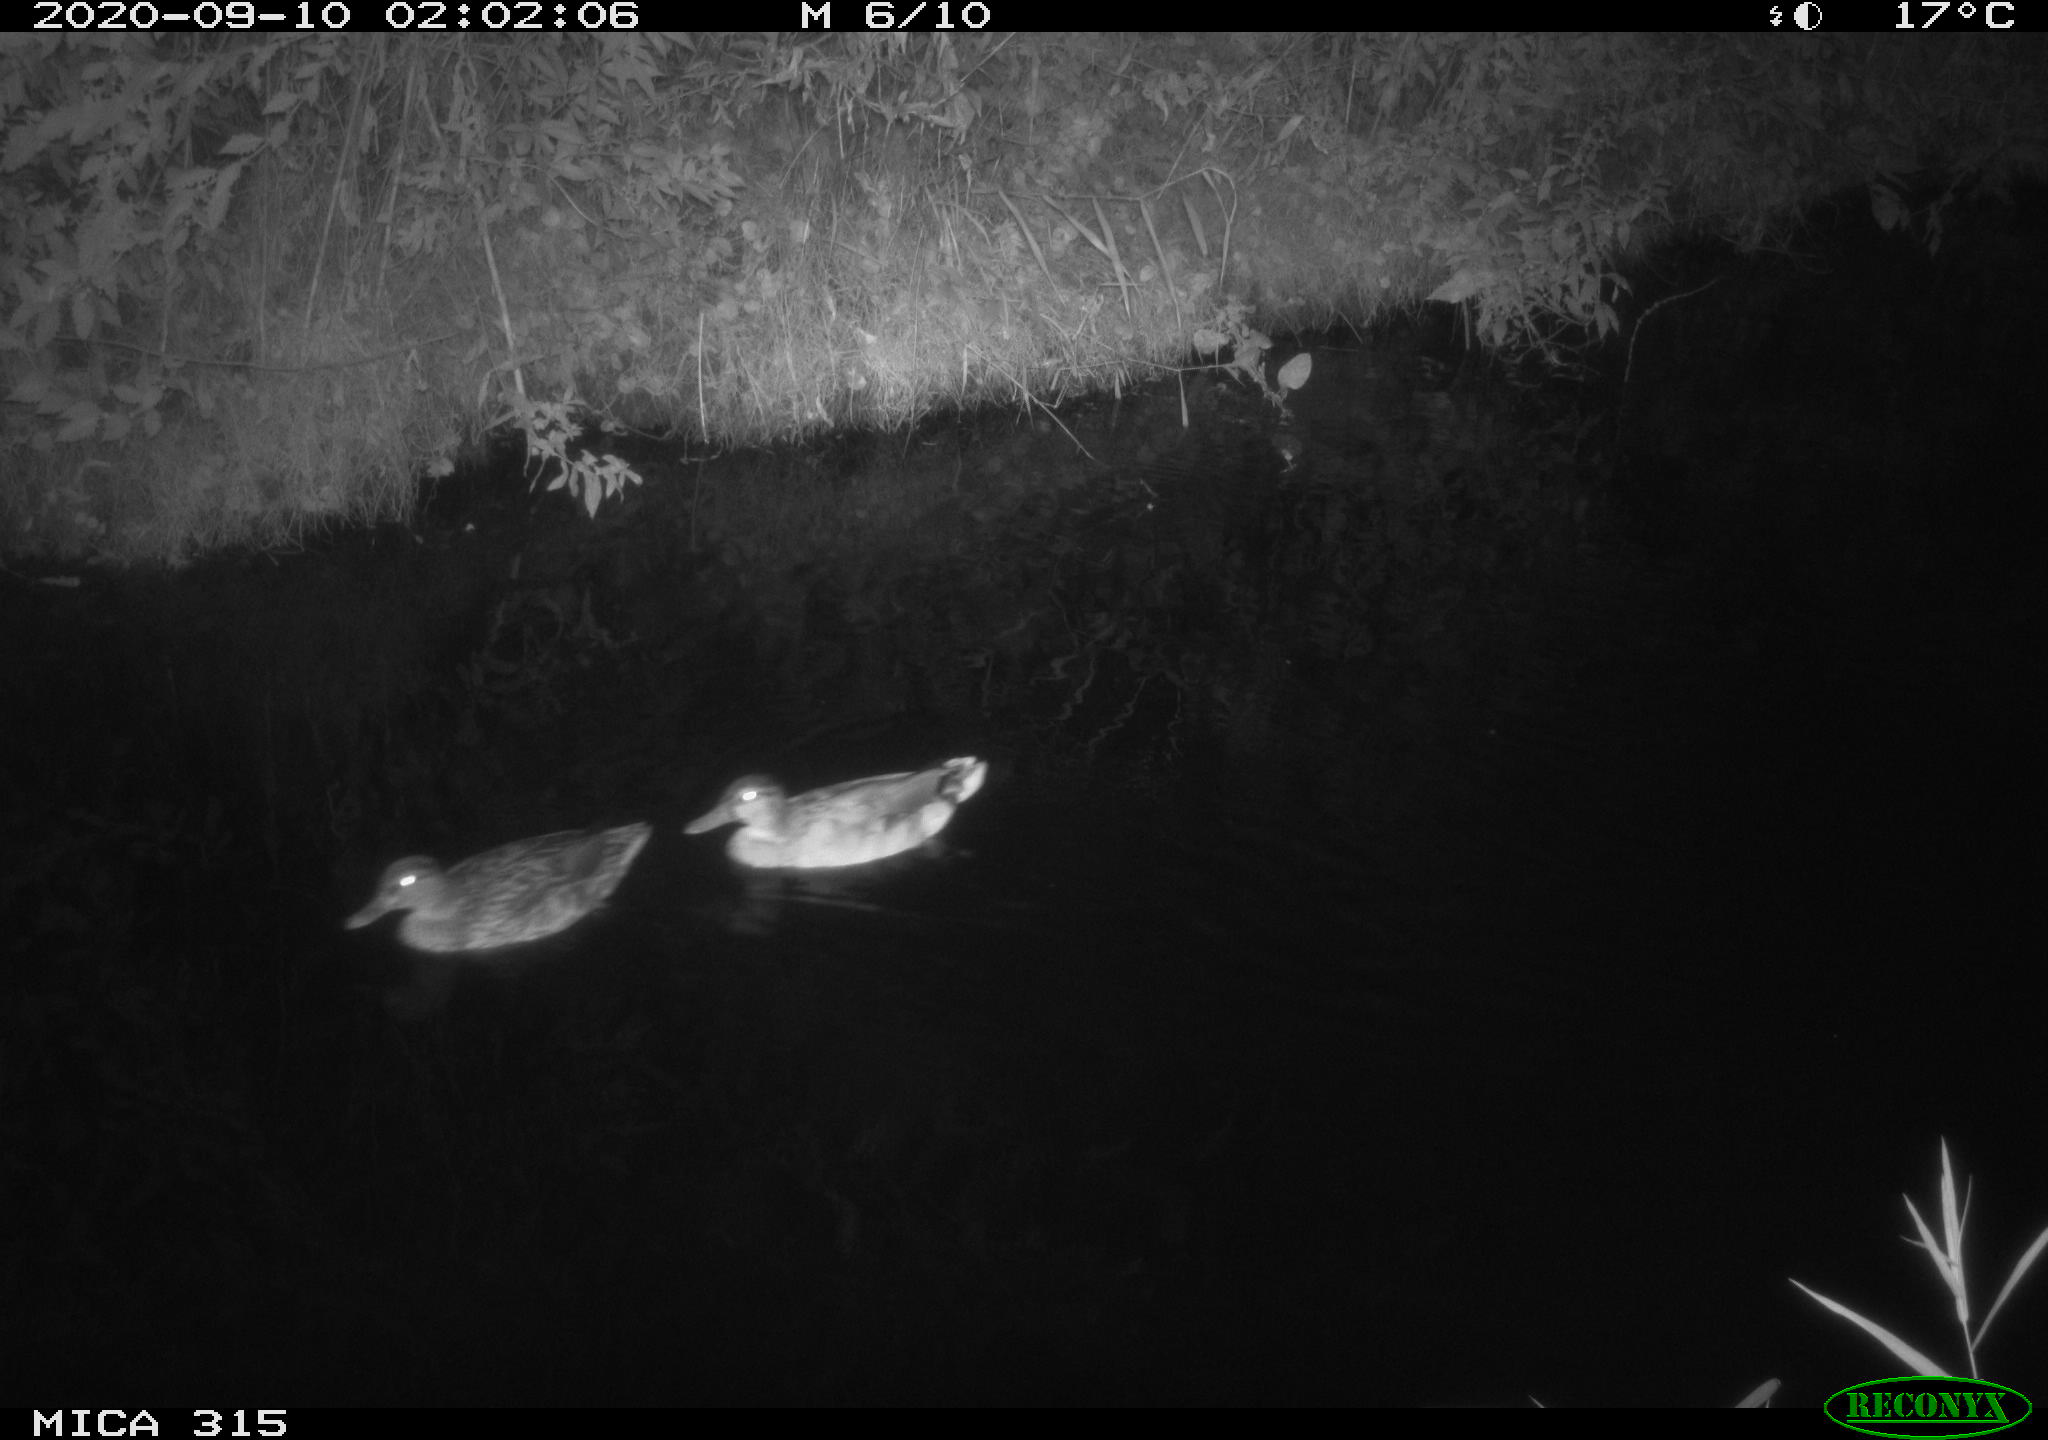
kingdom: Animalia
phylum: Chordata
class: Aves
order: Anseriformes
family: Anatidae
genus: Anas
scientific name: Anas platyrhynchos
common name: Mallard
